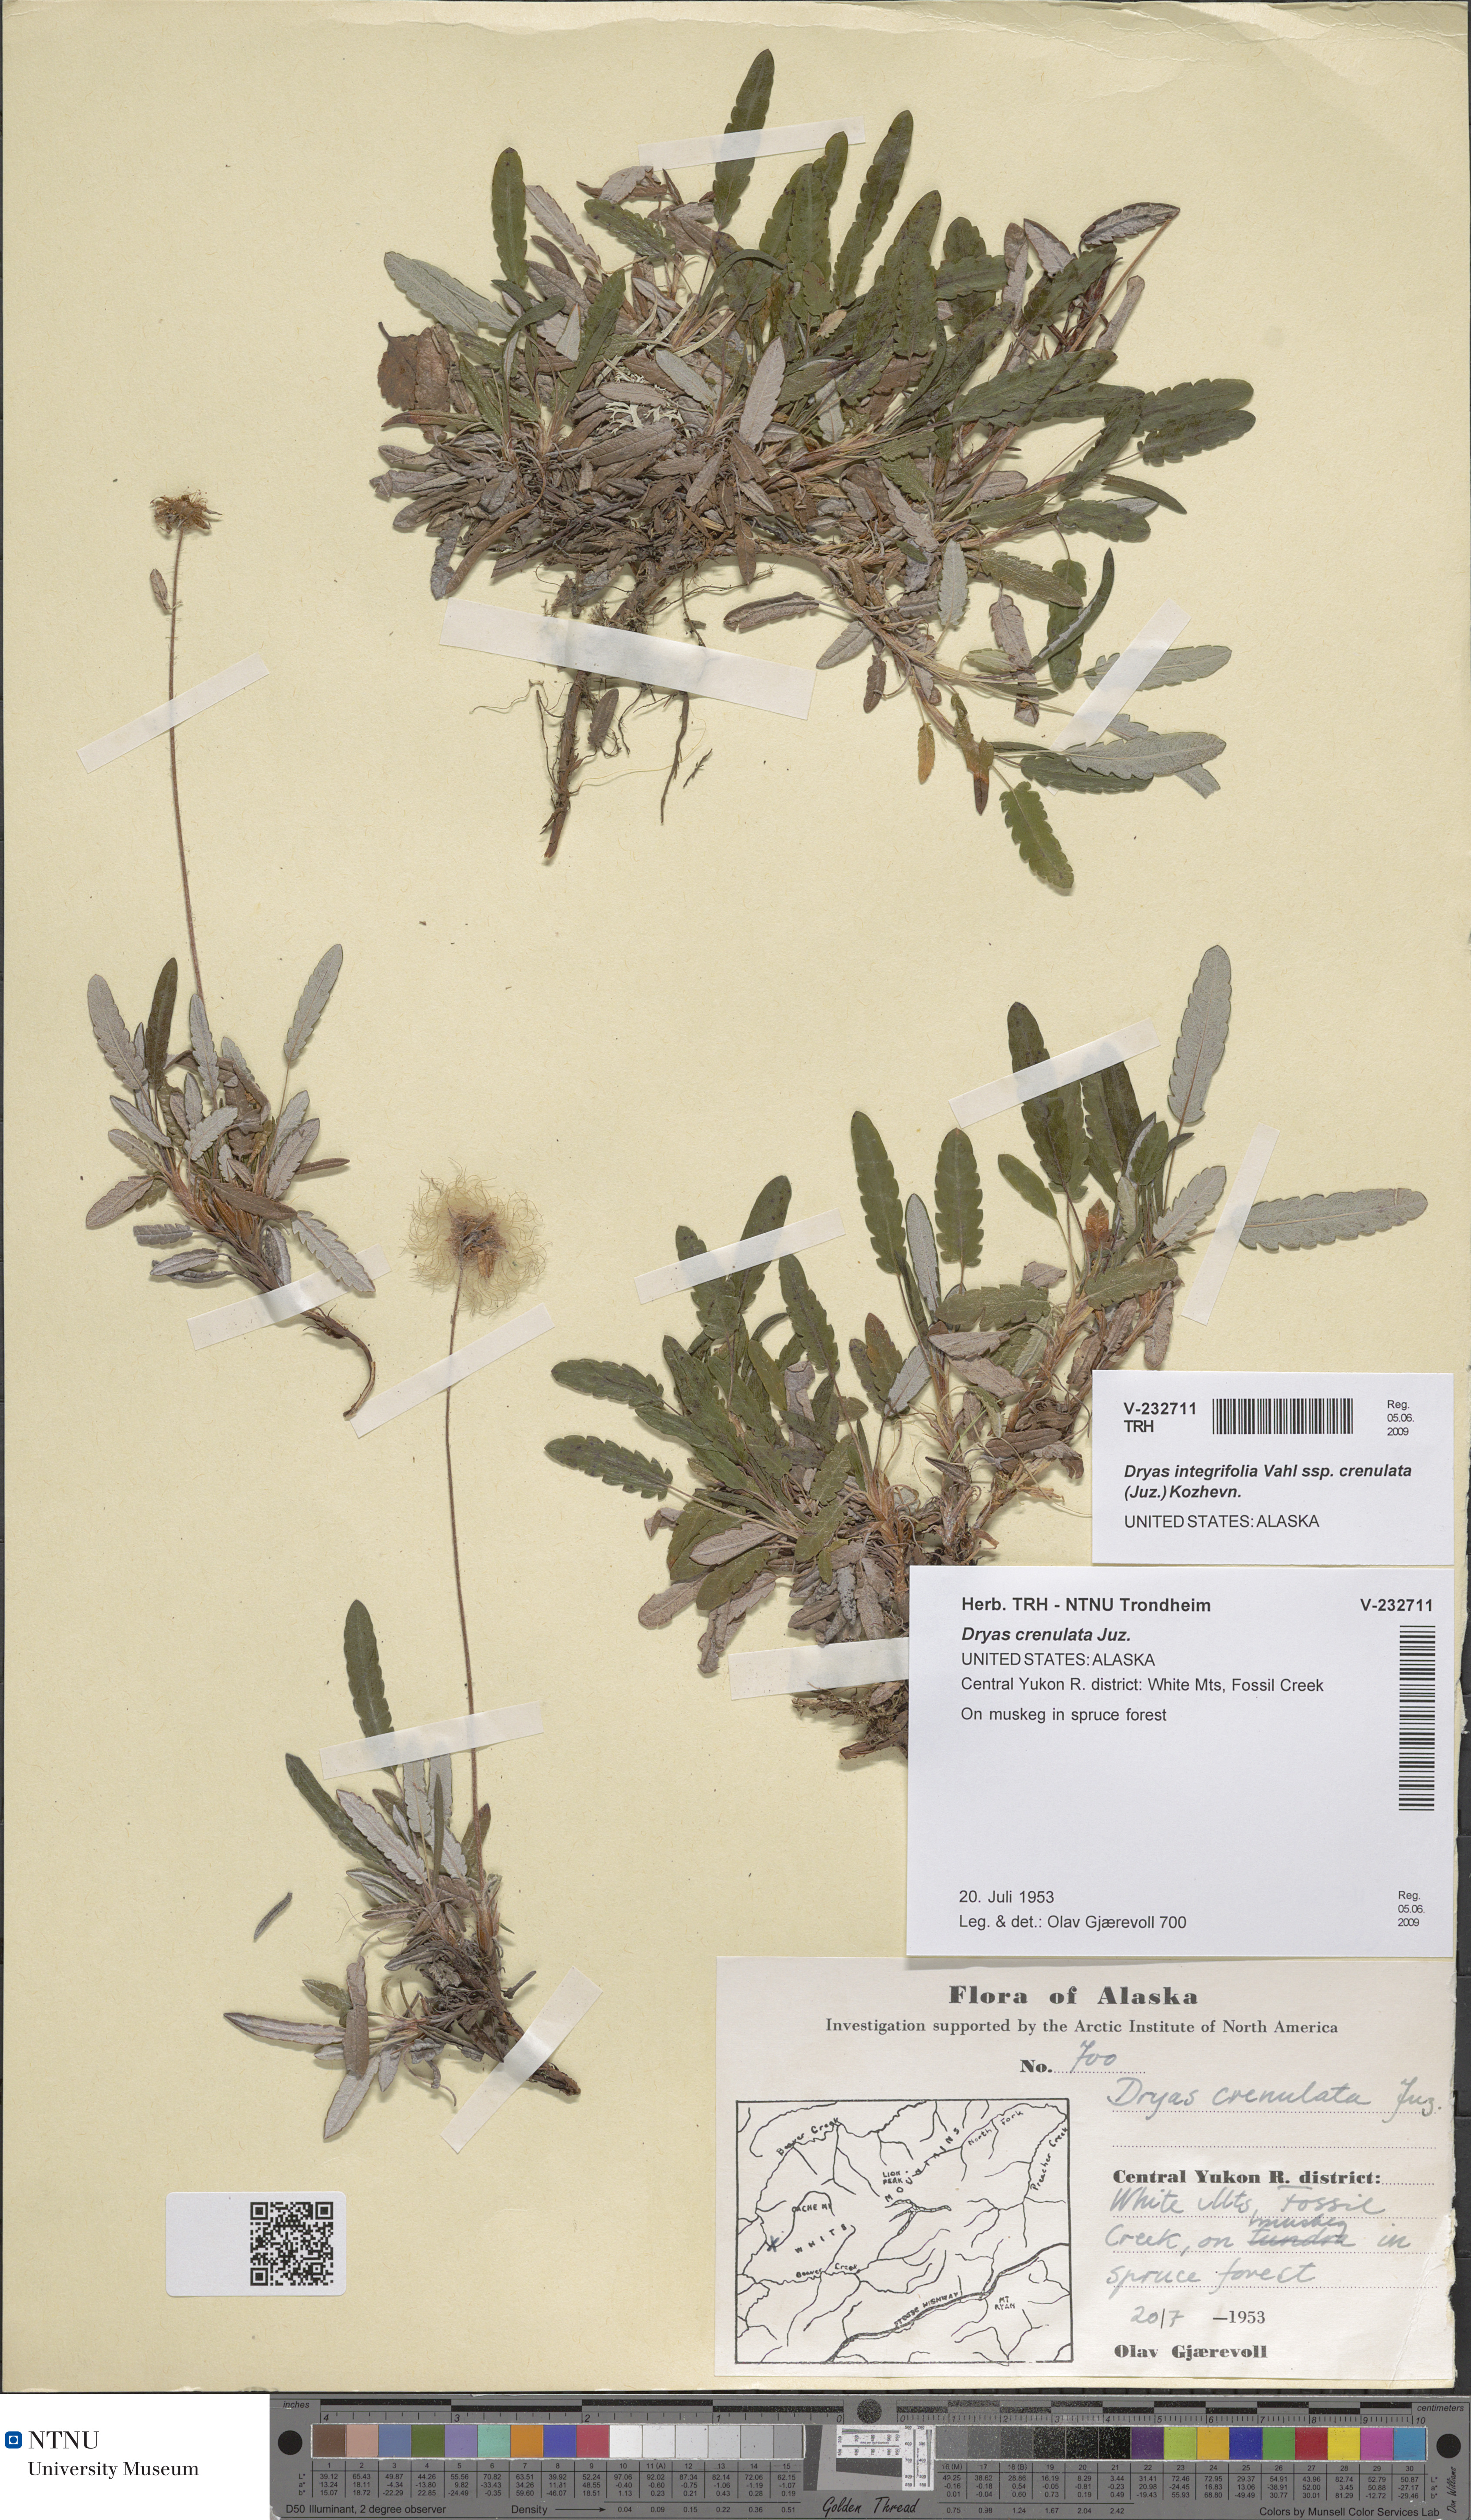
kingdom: Plantae
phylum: Tracheophyta
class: Magnoliopsida
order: Rosales
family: Rosaceae
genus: Dryas
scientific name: Dryas integrifolia
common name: Entire-leaved mountain avens
